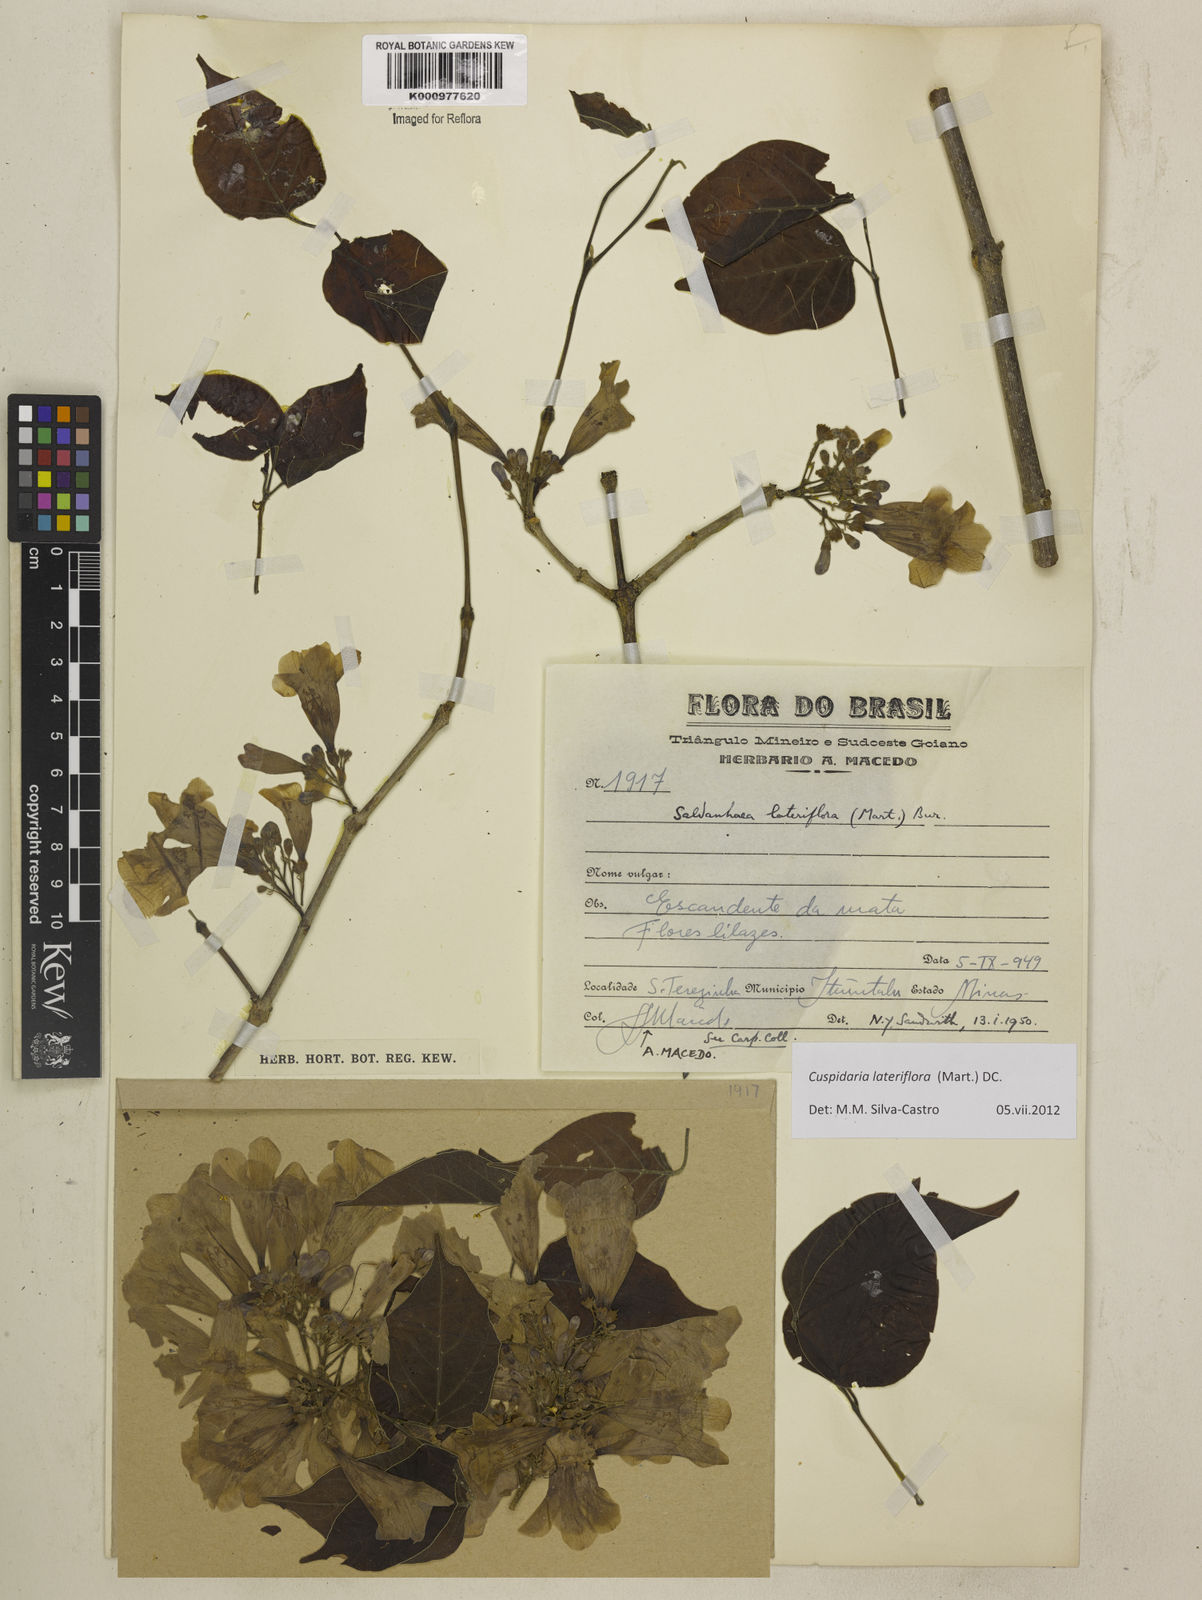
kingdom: Plantae
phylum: Tracheophyta
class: Magnoliopsida
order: Lamiales
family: Bignoniaceae
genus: Cuspidaria
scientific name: Cuspidaria lateriflora
